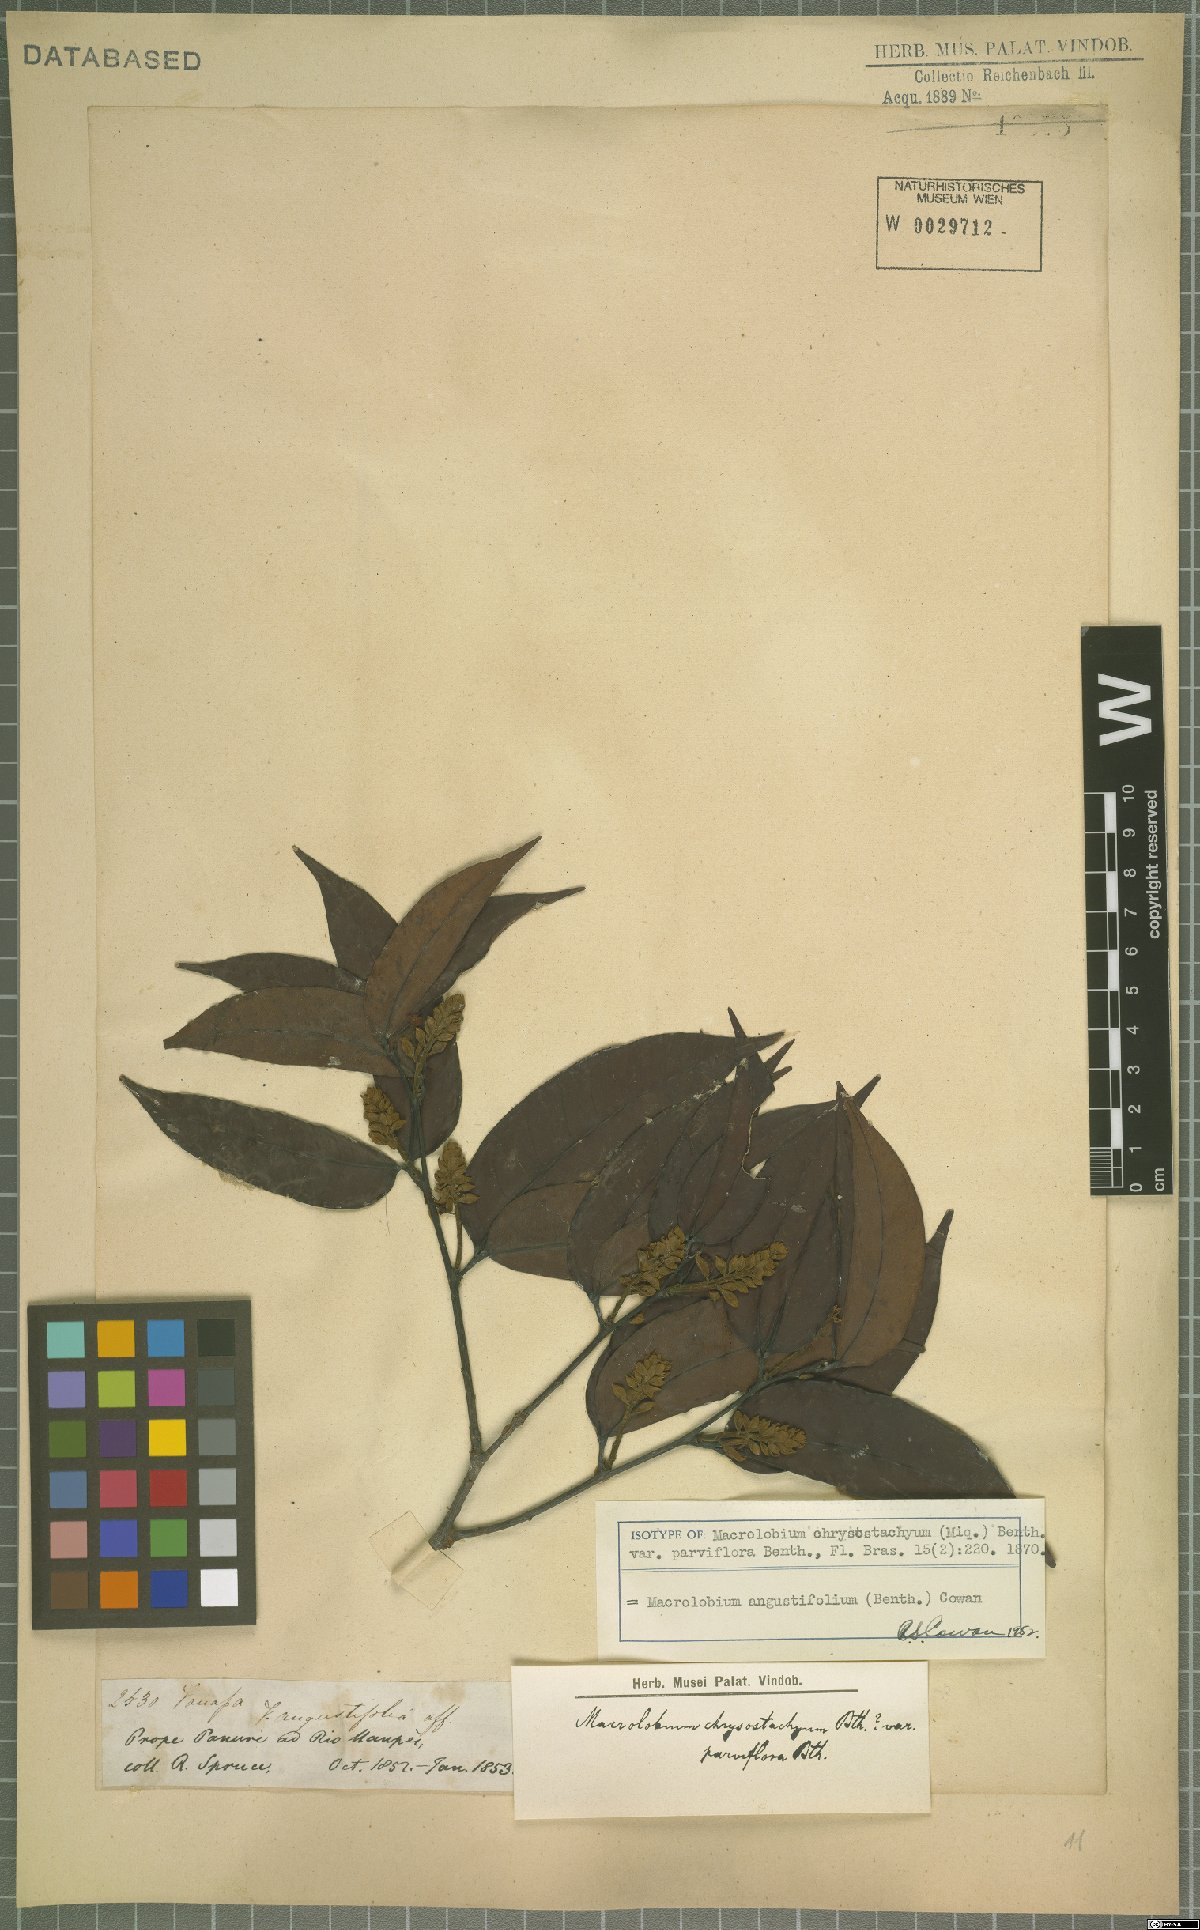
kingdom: Plantae
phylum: Tracheophyta
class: Magnoliopsida
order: Fabales
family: Fabaceae
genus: Macrolobium
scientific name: Macrolobium angustifolium
